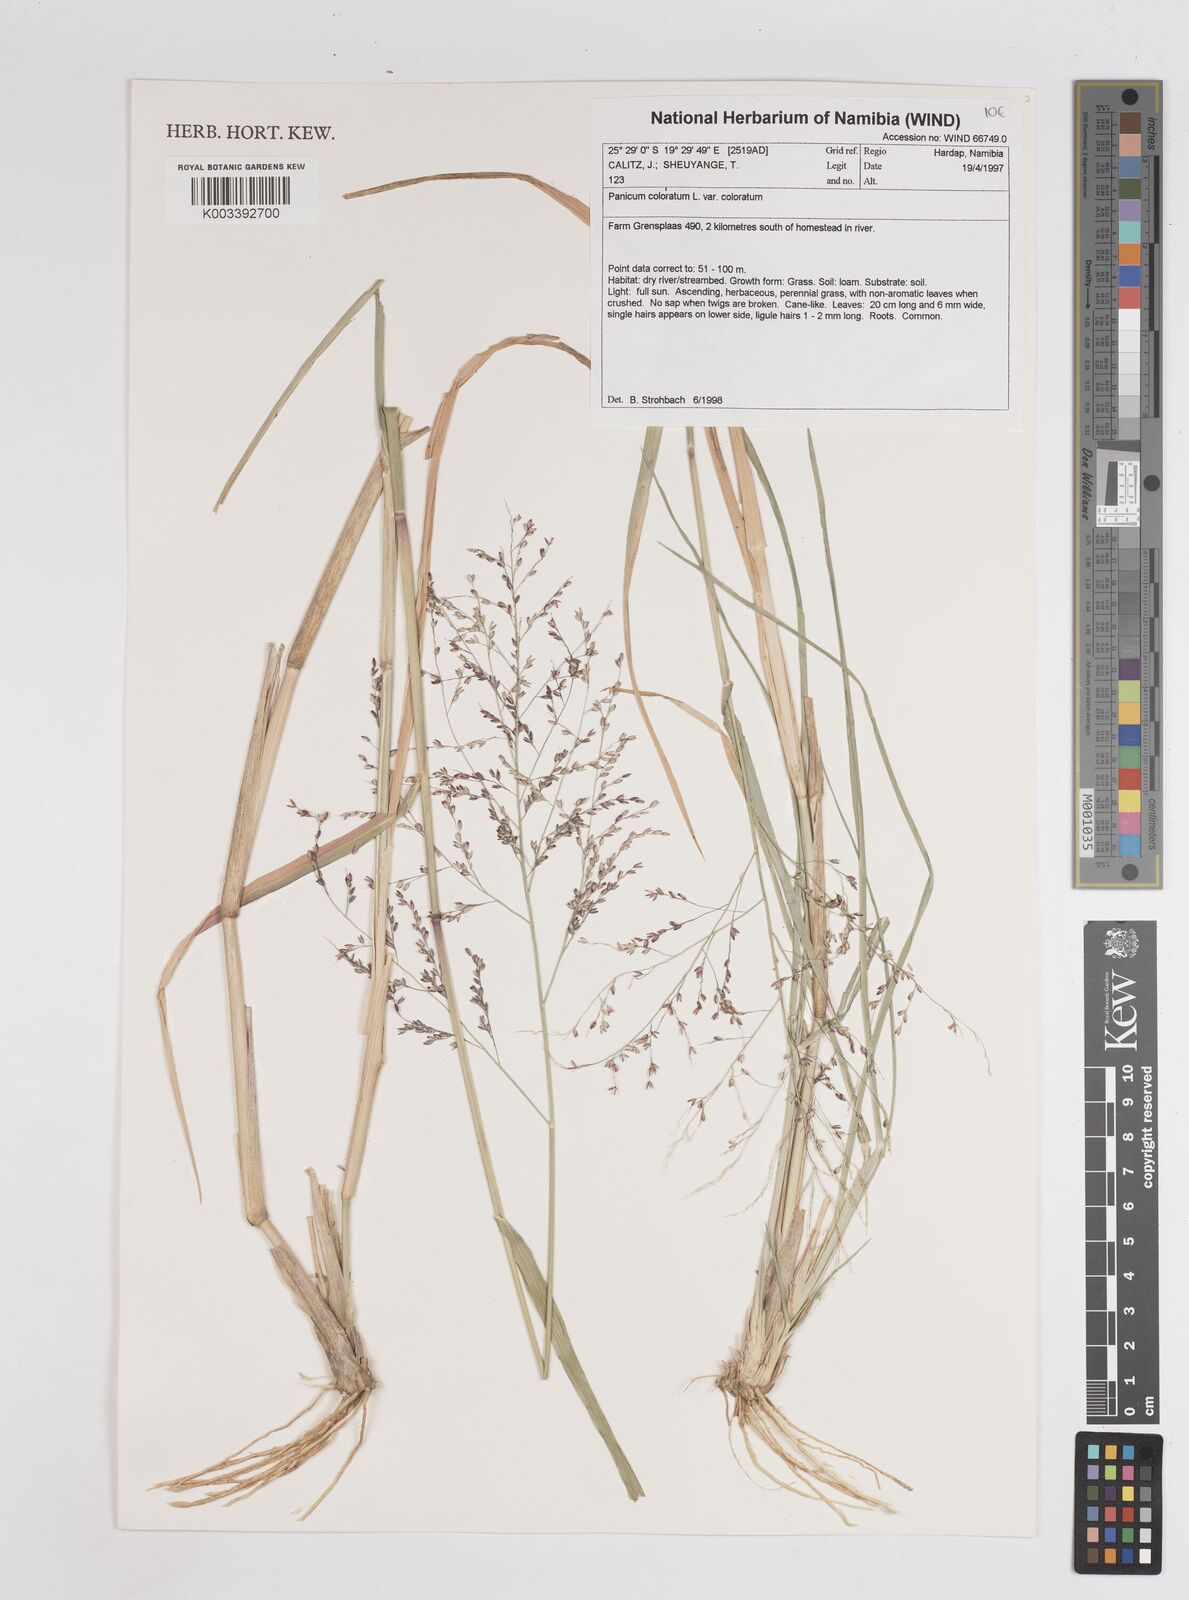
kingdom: Plantae
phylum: Tracheophyta
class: Liliopsida
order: Poales
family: Poaceae
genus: Panicum
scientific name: Panicum coloratum
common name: Kleingrass
